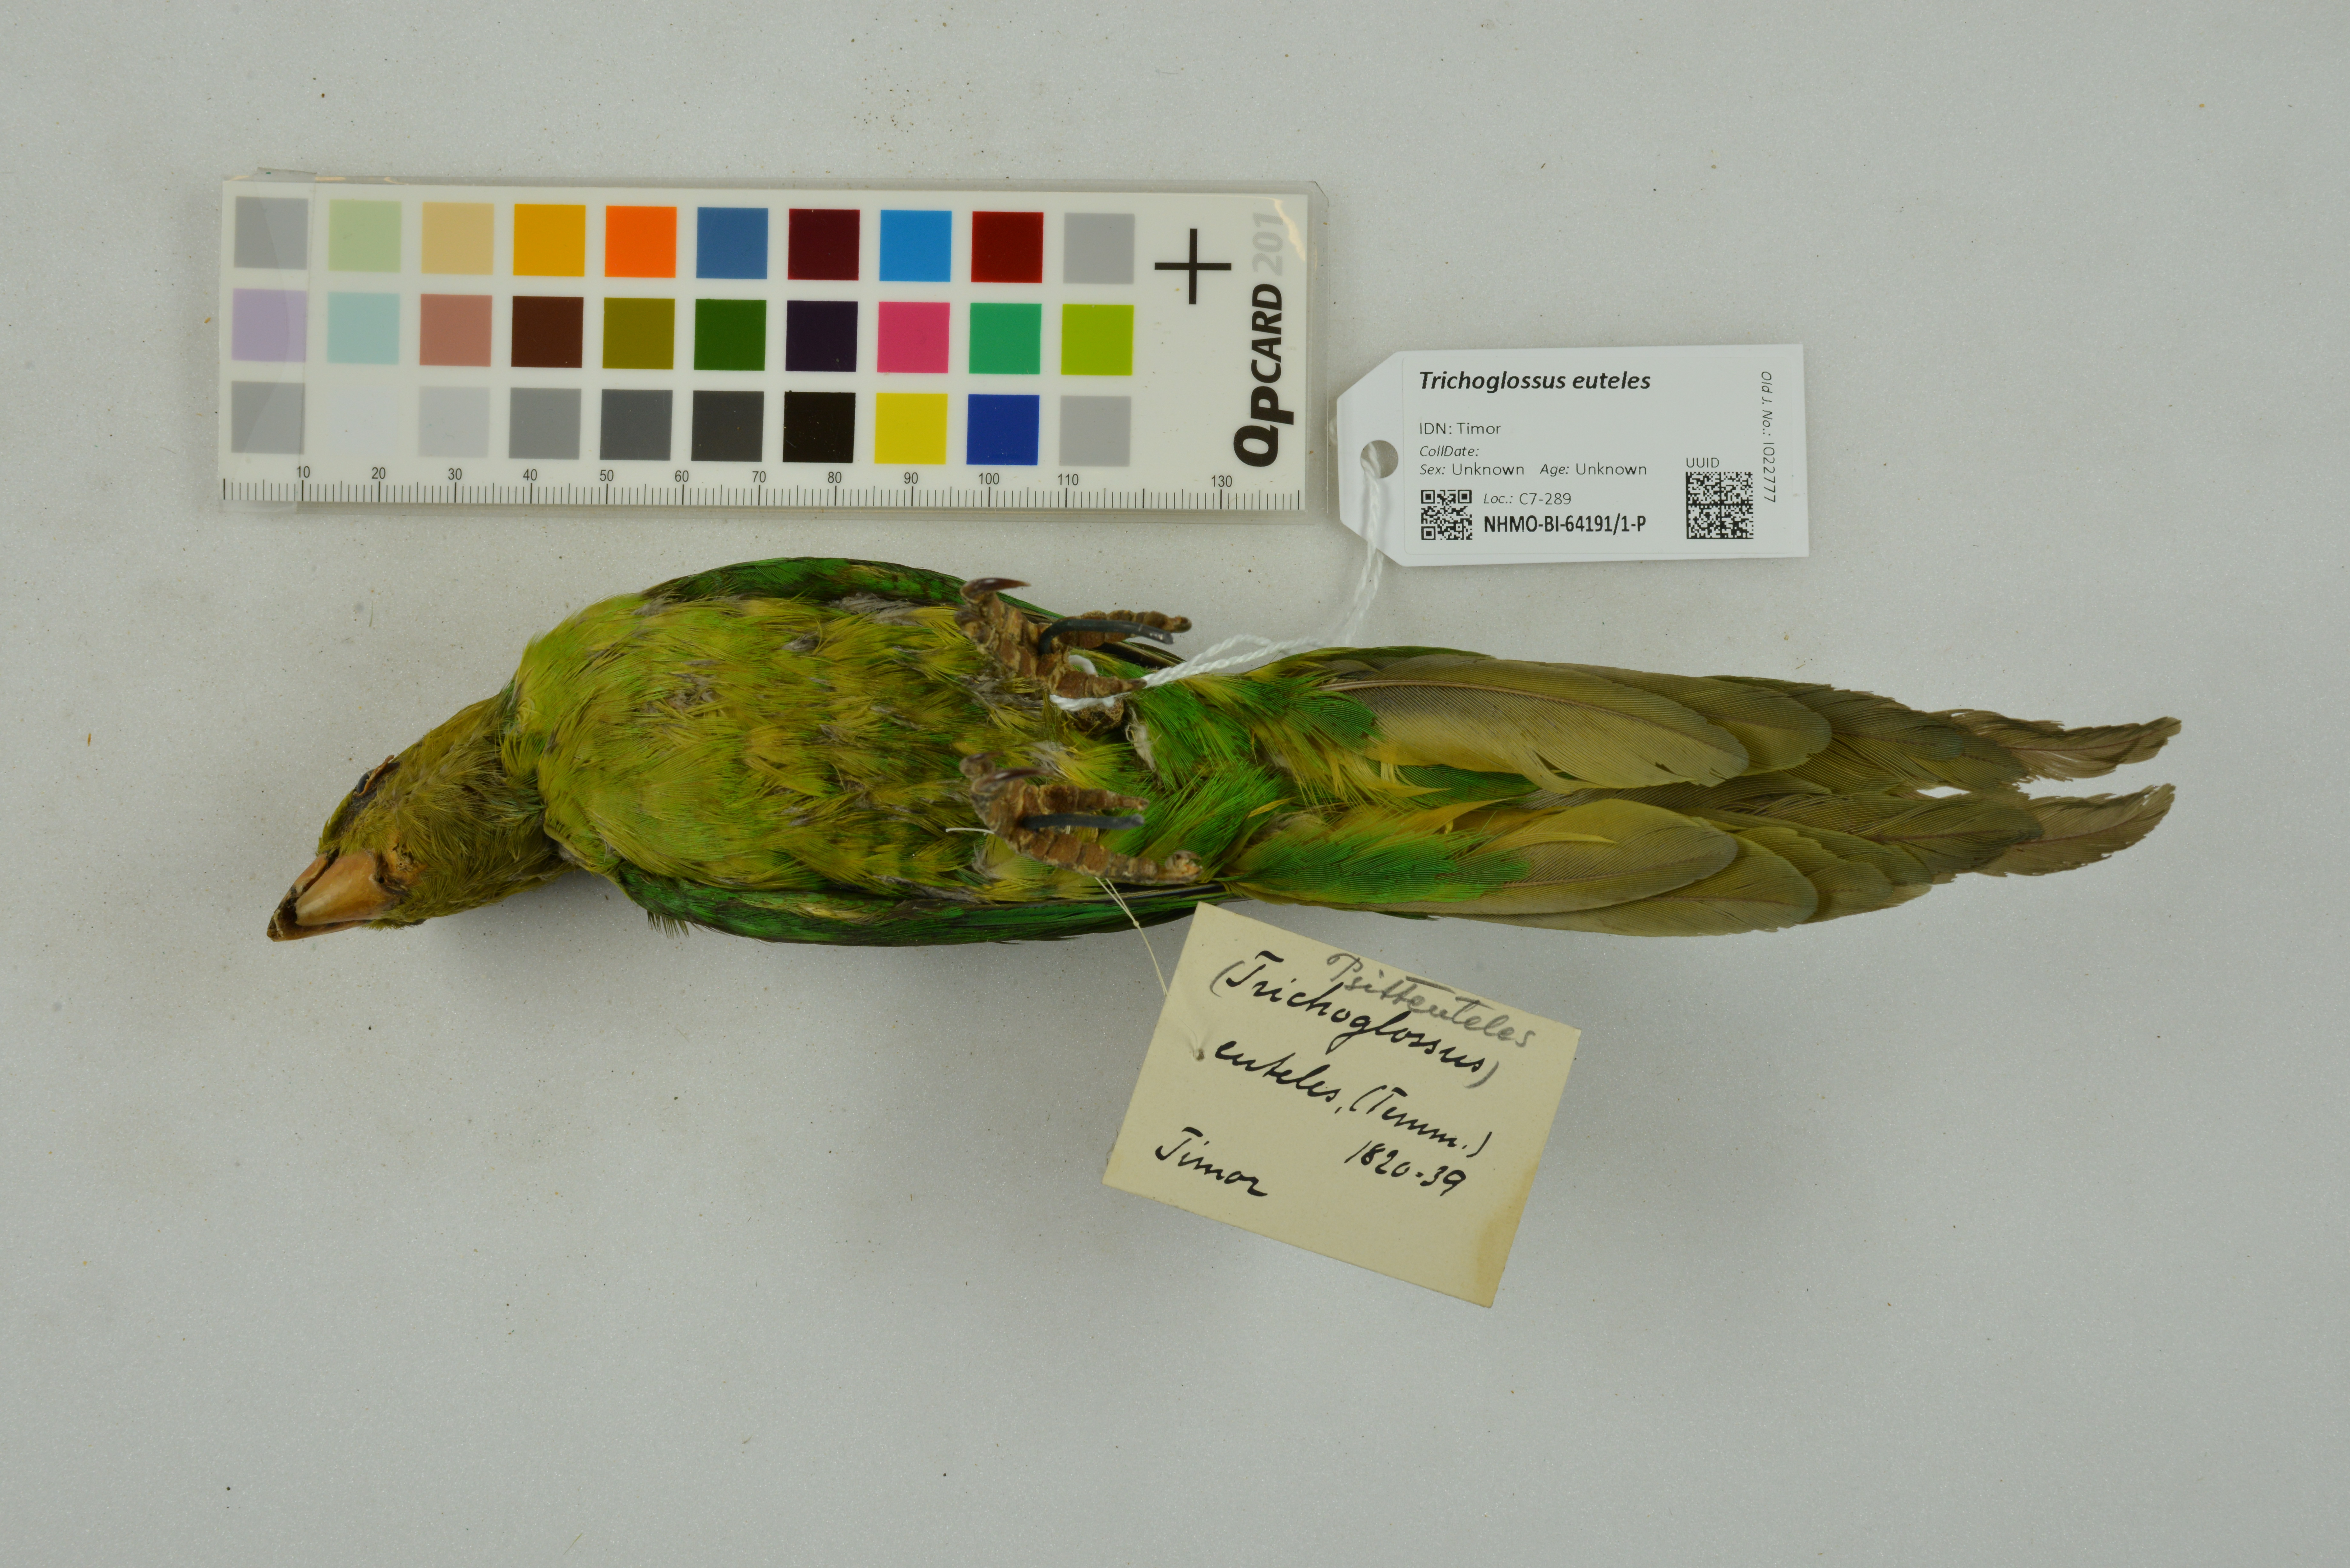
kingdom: Animalia
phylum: Chordata
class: Aves
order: Psittaciformes
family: Psittacidae
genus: Trichoglossus
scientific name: Trichoglossus euteles
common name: Olive-headed lorikeet
